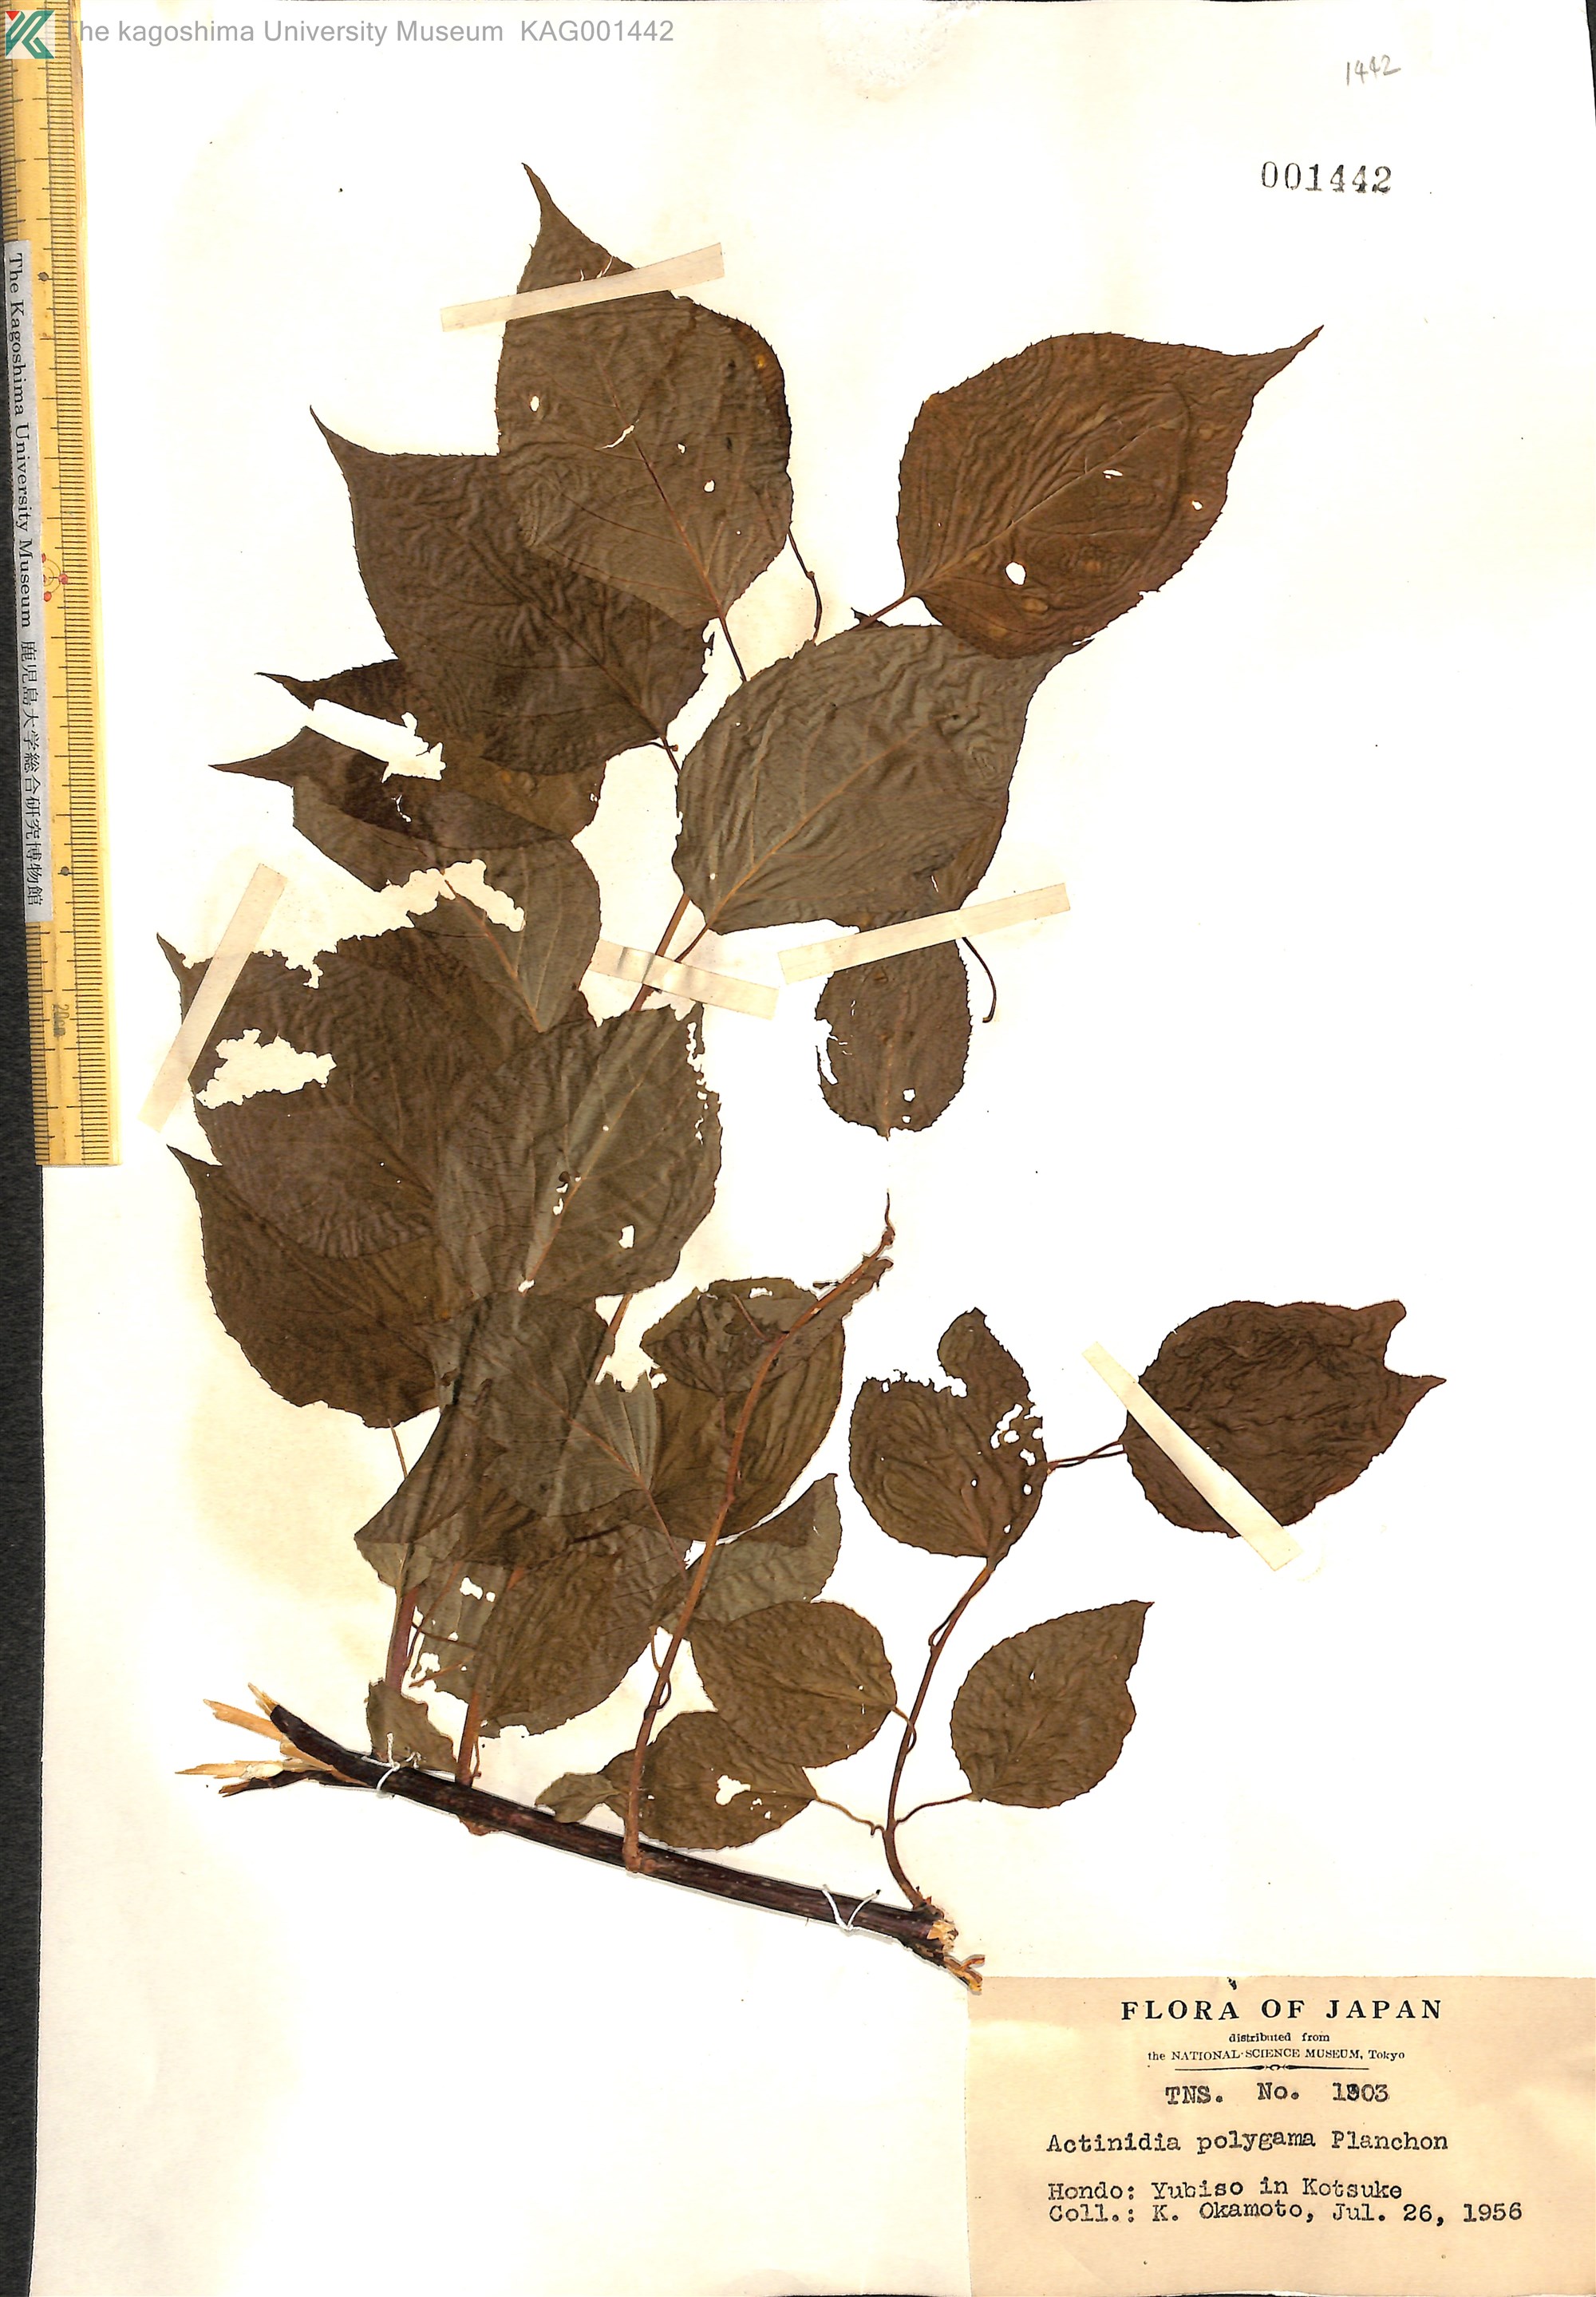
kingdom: Plantae
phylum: Tracheophyta
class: Magnoliopsida
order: Ericales
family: Actinidiaceae
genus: Actinidia
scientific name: Actinidia polygama
